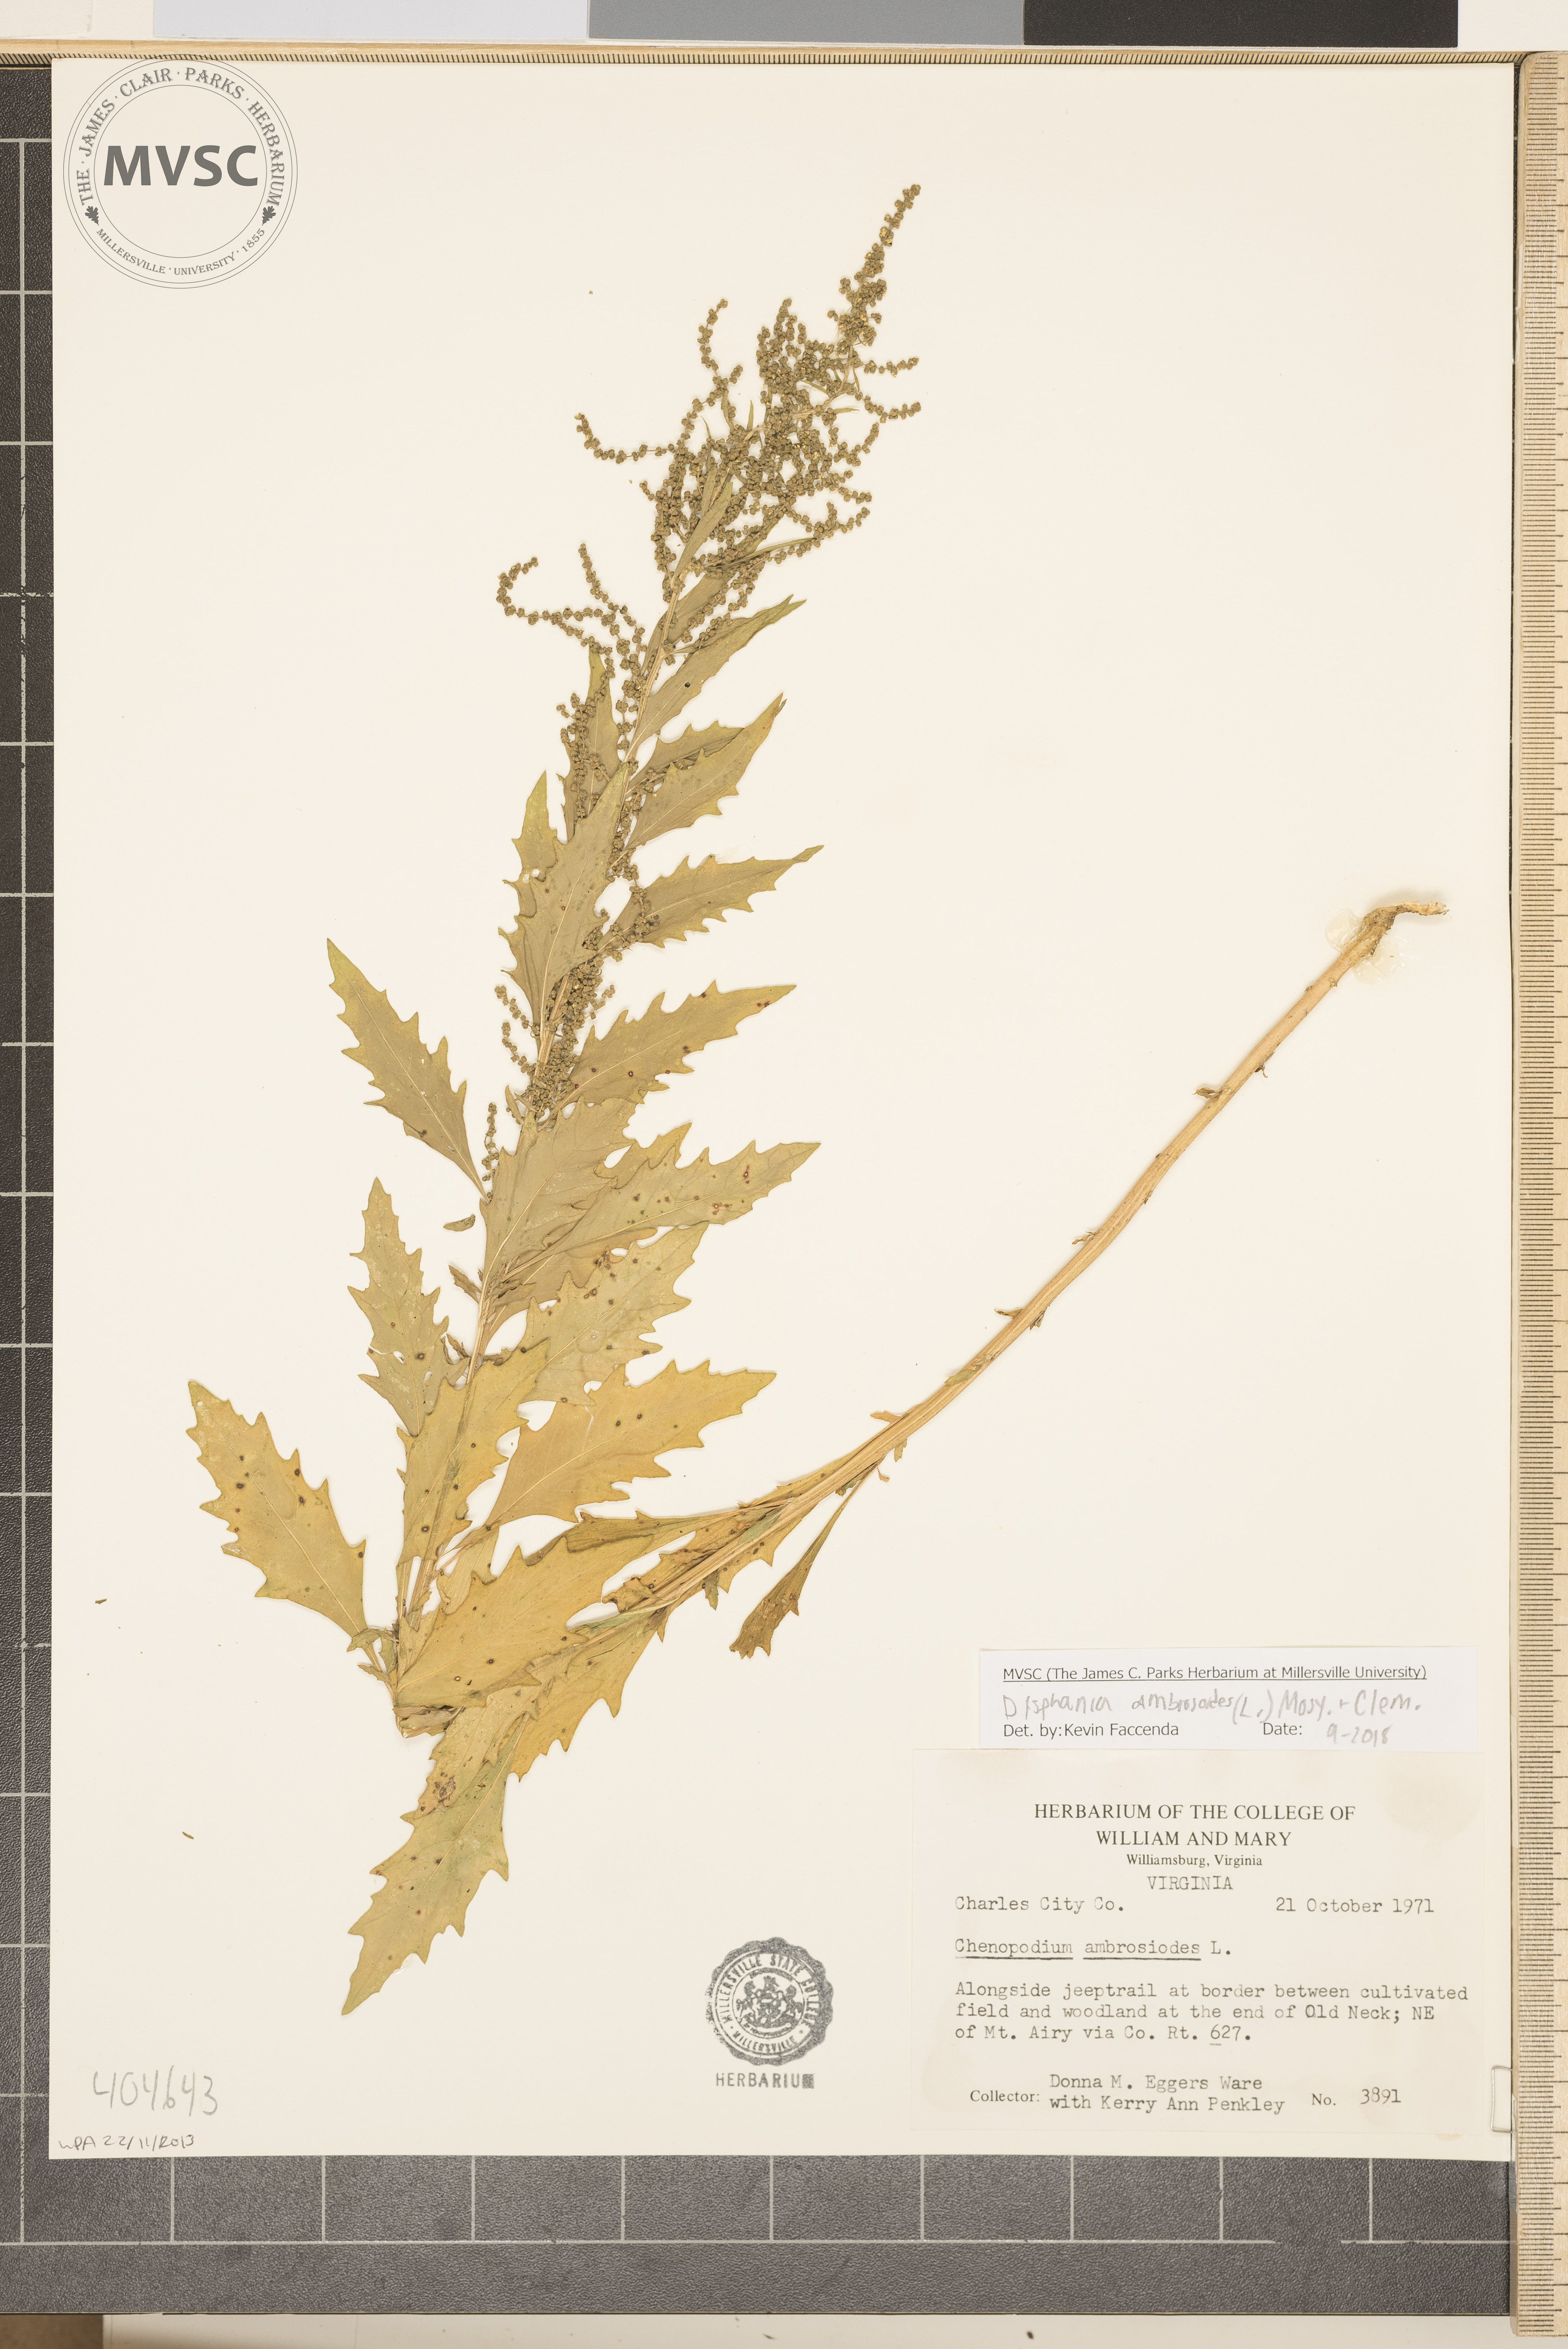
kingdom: Plantae
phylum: Tracheophyta
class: Magnoliopsida
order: Caryophyllales
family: Amaranthaceae
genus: Dysphania
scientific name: Dysphania ambrosioides
